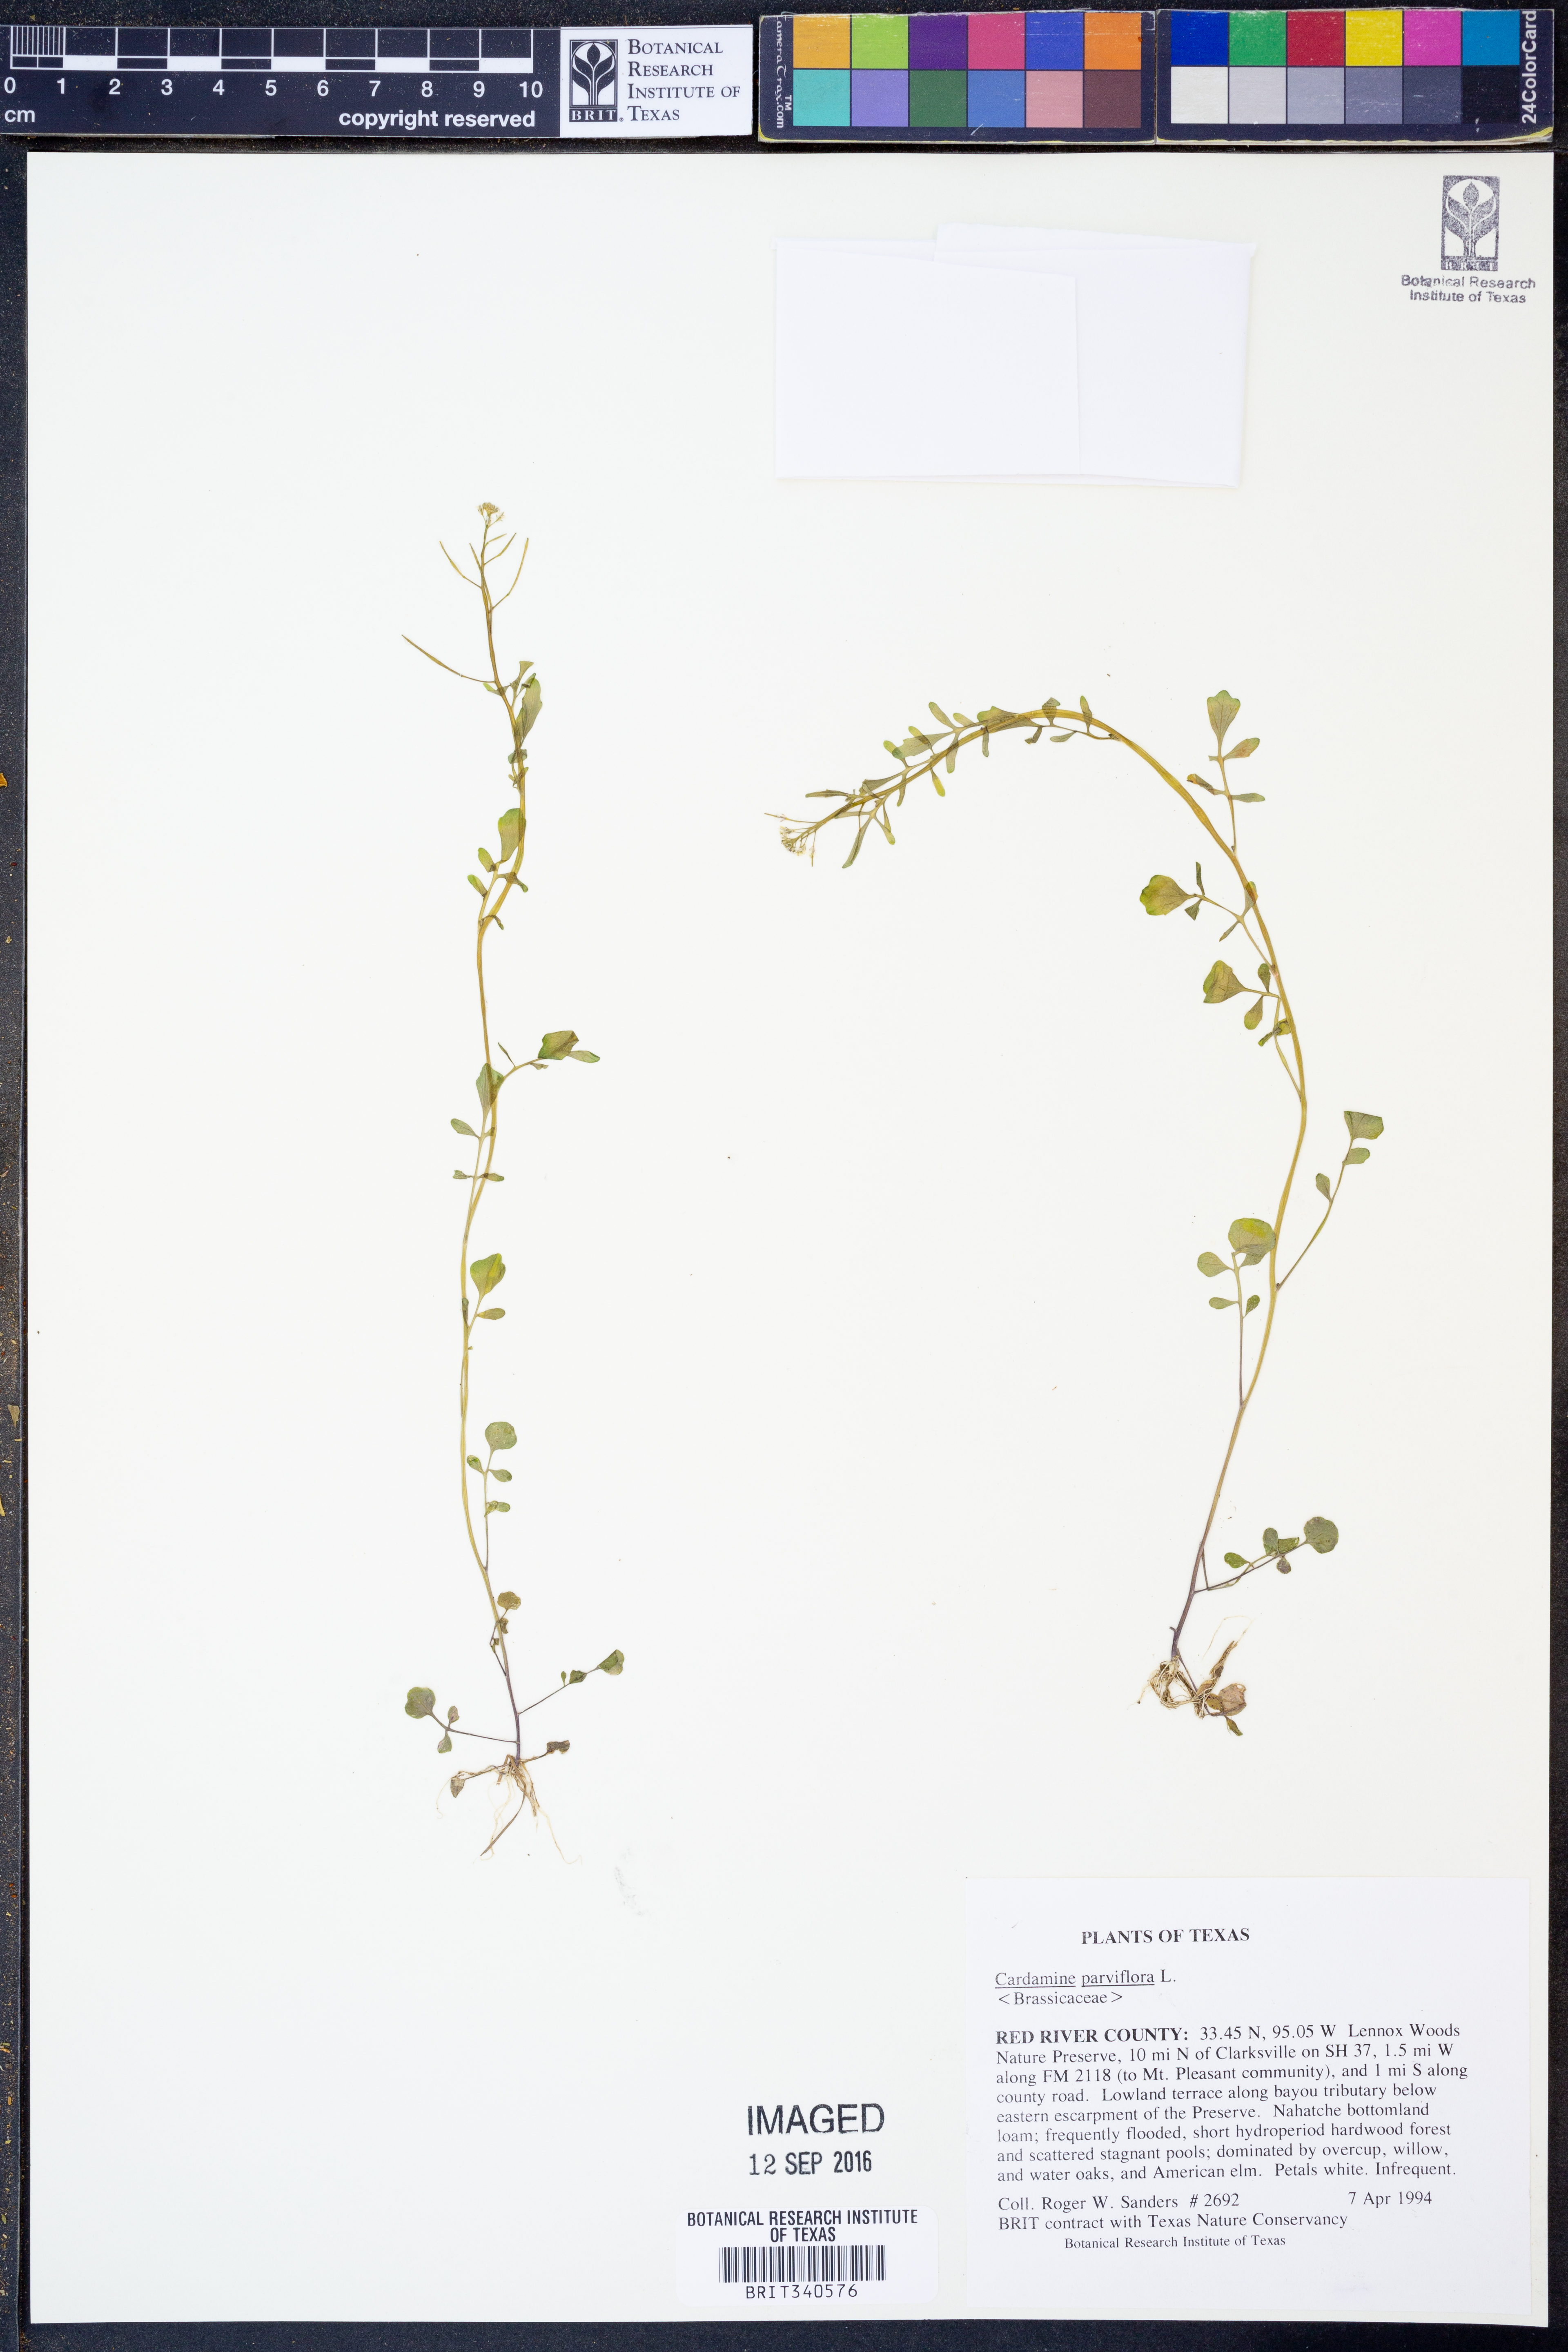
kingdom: Plantae
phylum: Tracheophyta
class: Magnoliopsida
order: Brassicales
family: Brassicaceae
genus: Cardamine
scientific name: Cardamine parviflora
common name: Sand bittercress
